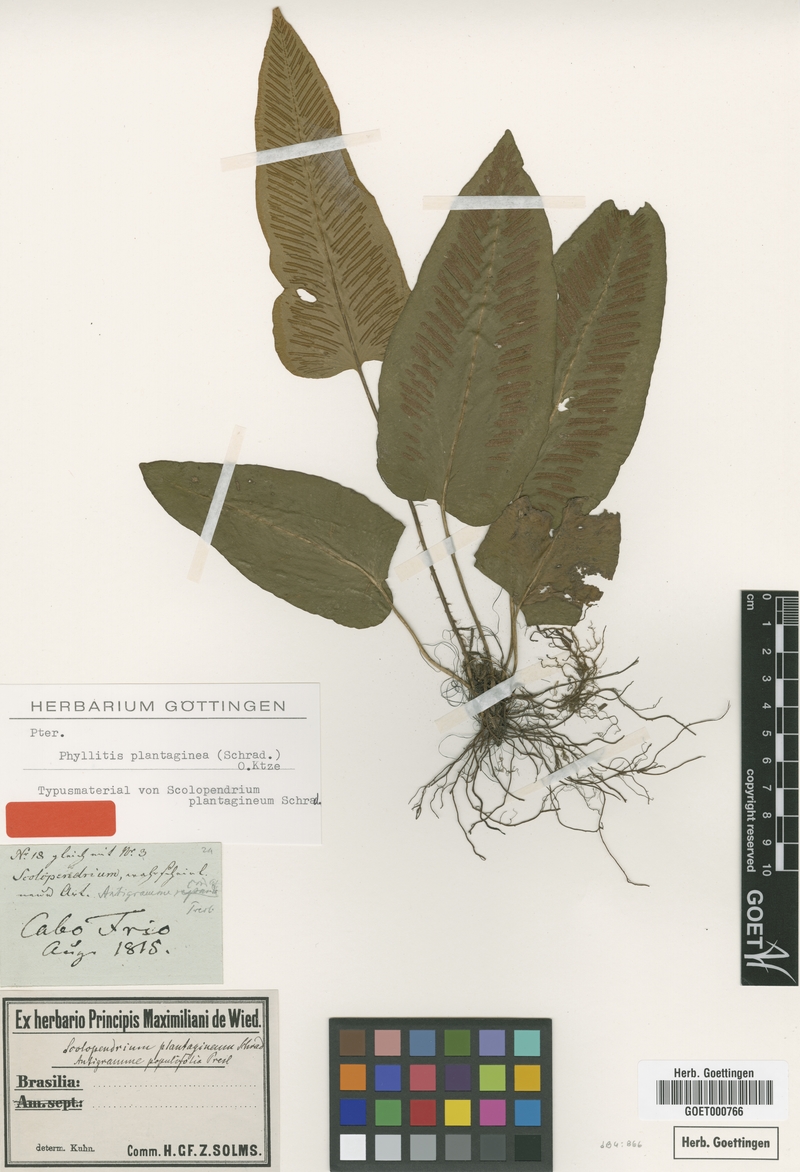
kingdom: Plantae
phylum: Tracheophyta
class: Polypodiopsida
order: Polypodiales
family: Aspleniaceae
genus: Asplenium
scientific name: Asplenium douglasii
